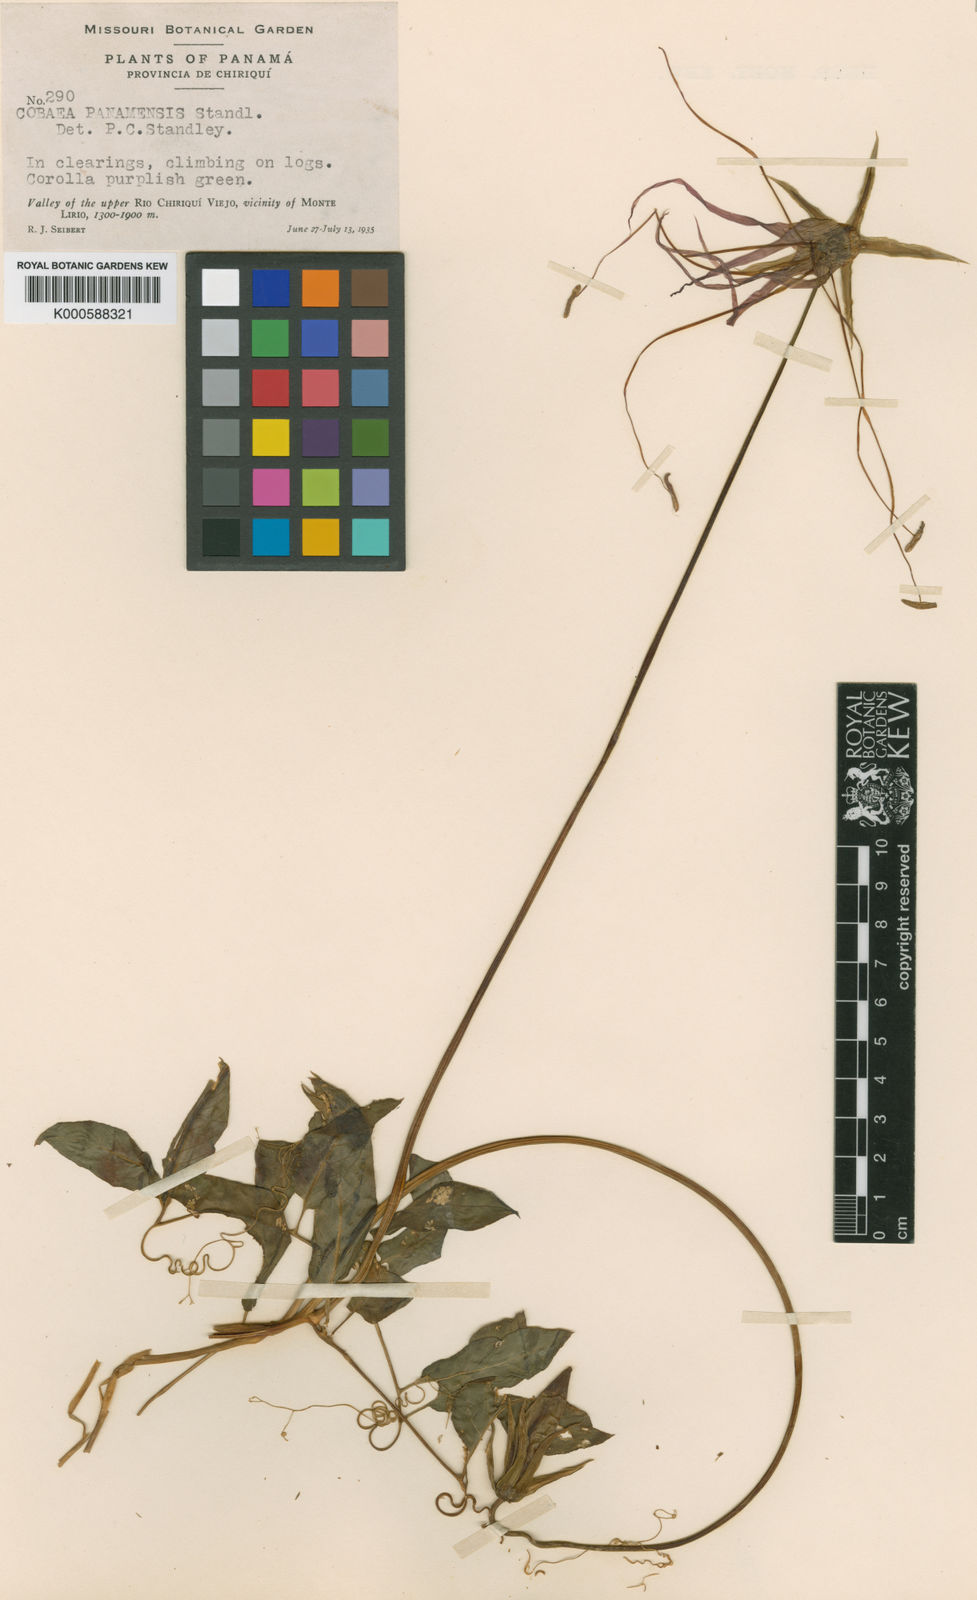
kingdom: Plantae
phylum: Tracheophyta
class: Magnoliopsida
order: Ericales
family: Polemoniaceae
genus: Cobaea
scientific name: Cobaea gracilis
